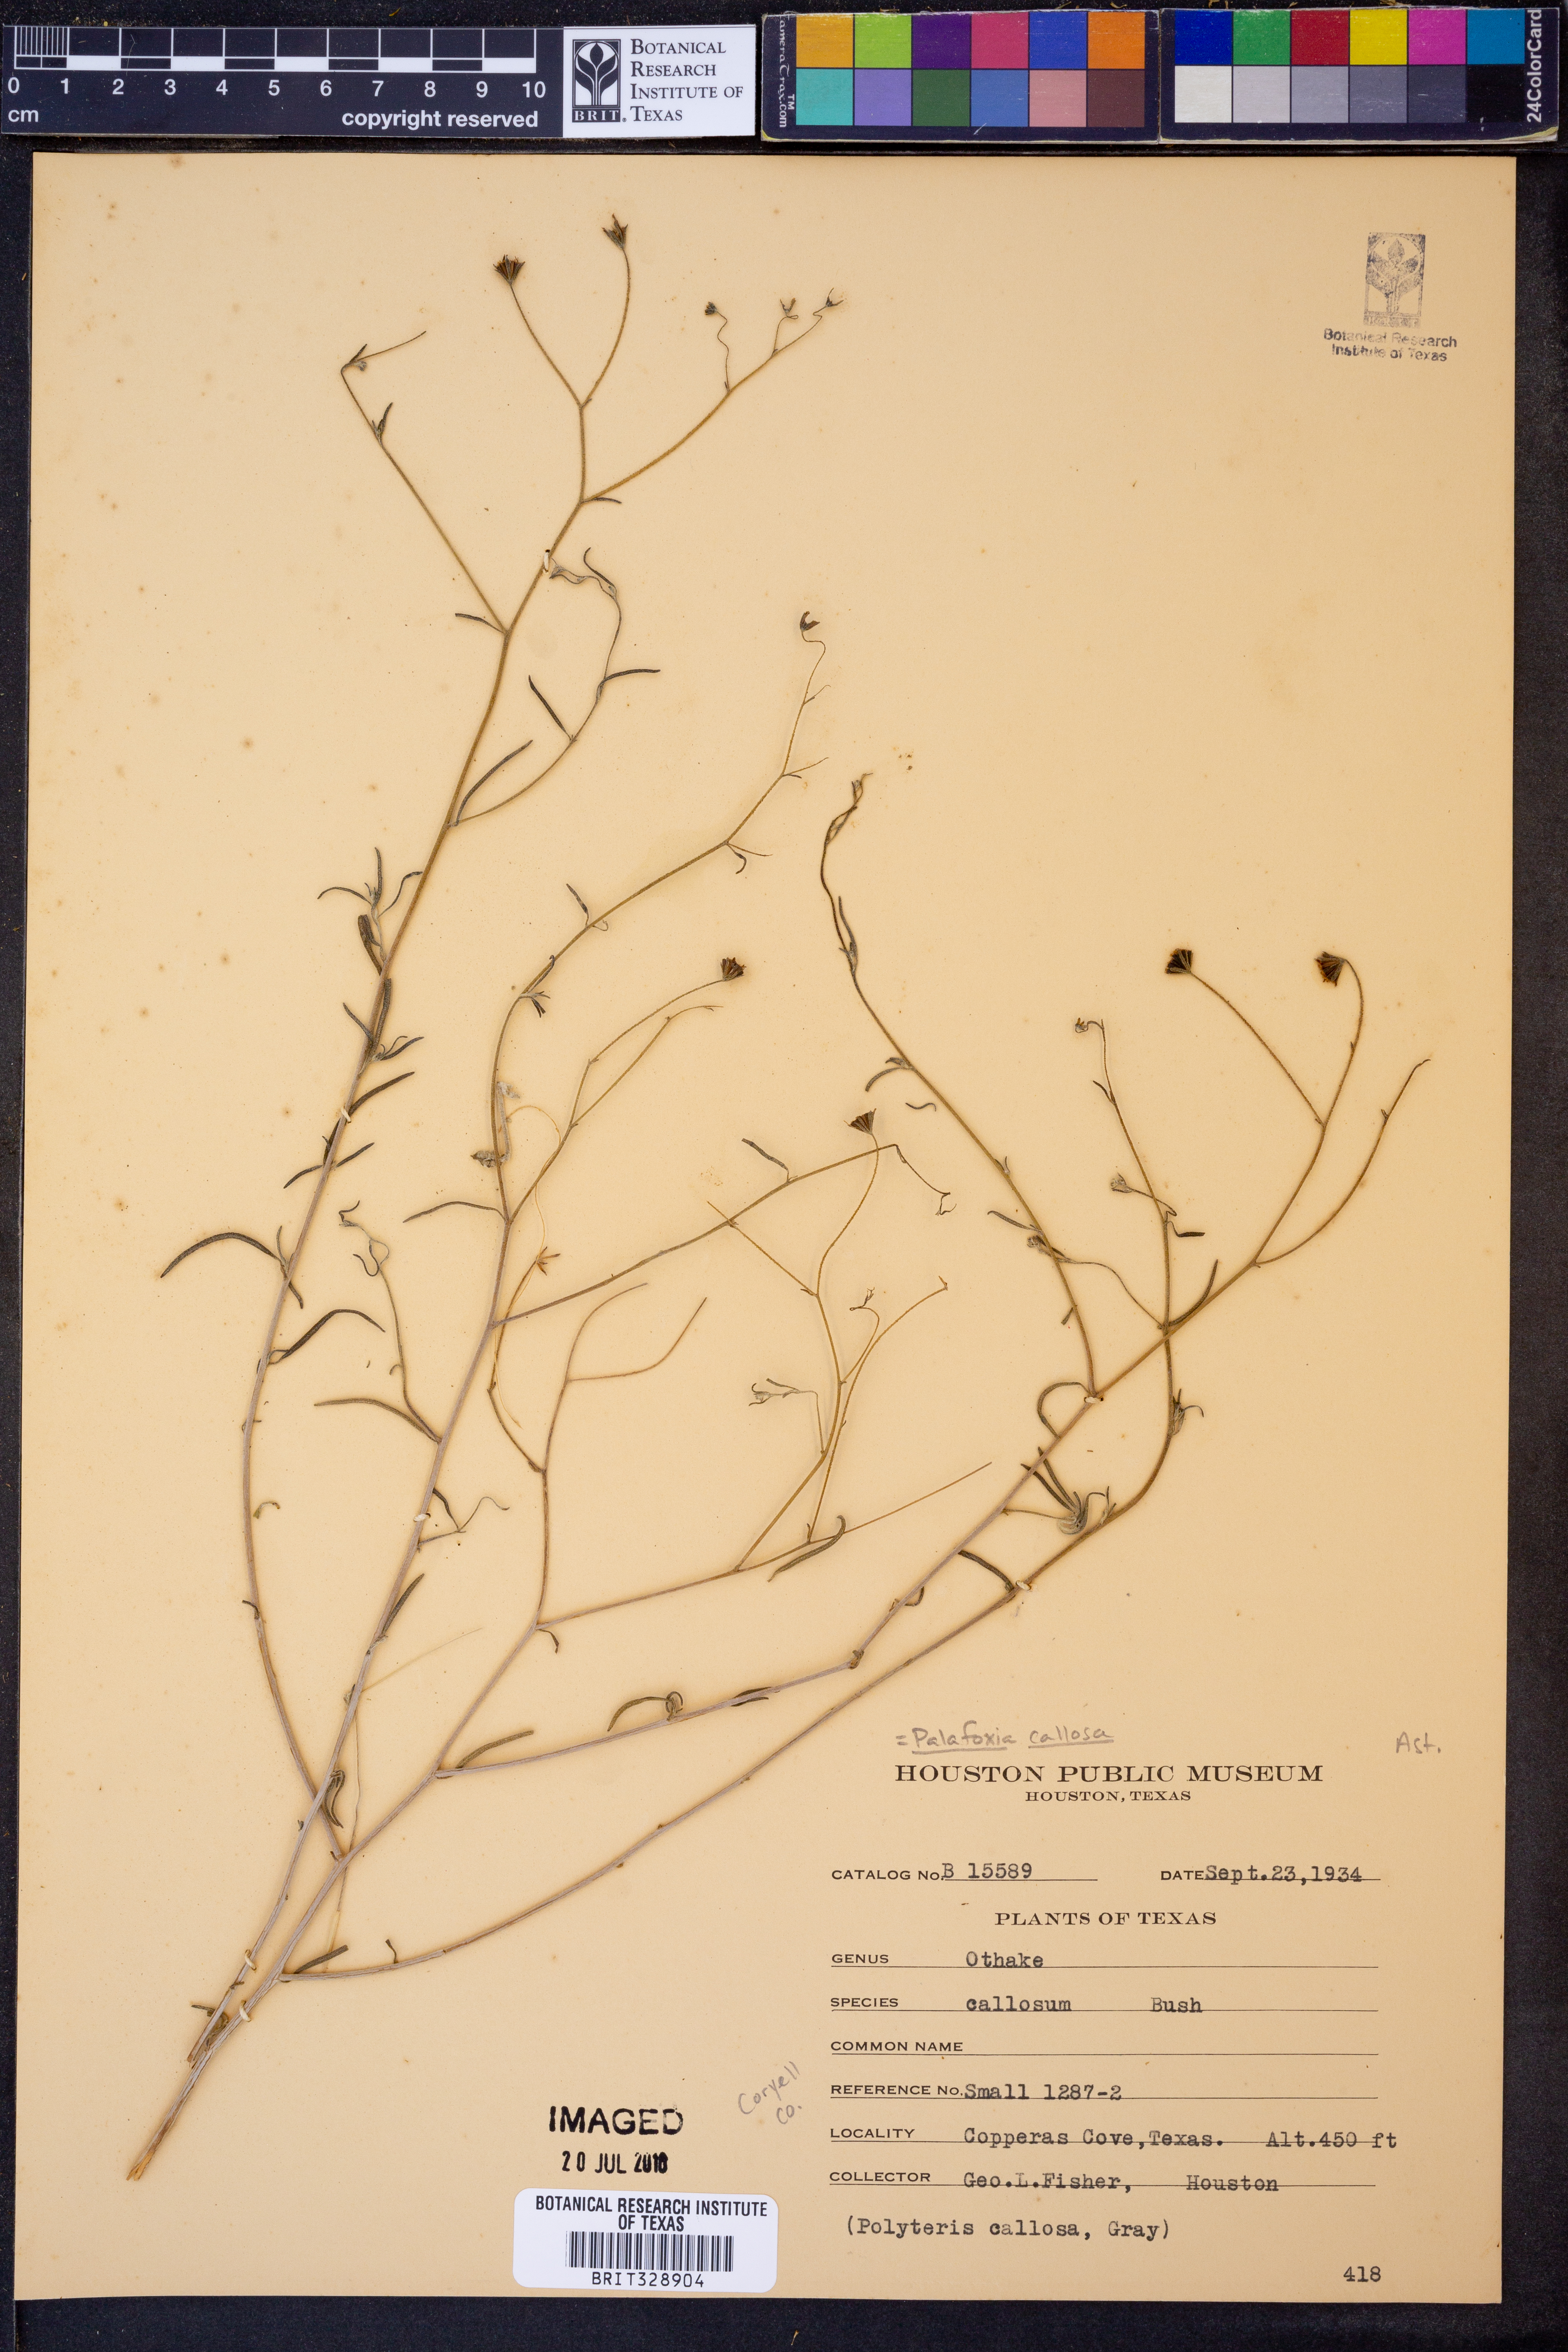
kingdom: Plantae
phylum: Tracheophyta
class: Magnoliopsida
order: Asterales
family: Asteraceae
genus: Palafoxia
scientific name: Palafoxia callosa
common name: Small palafox
